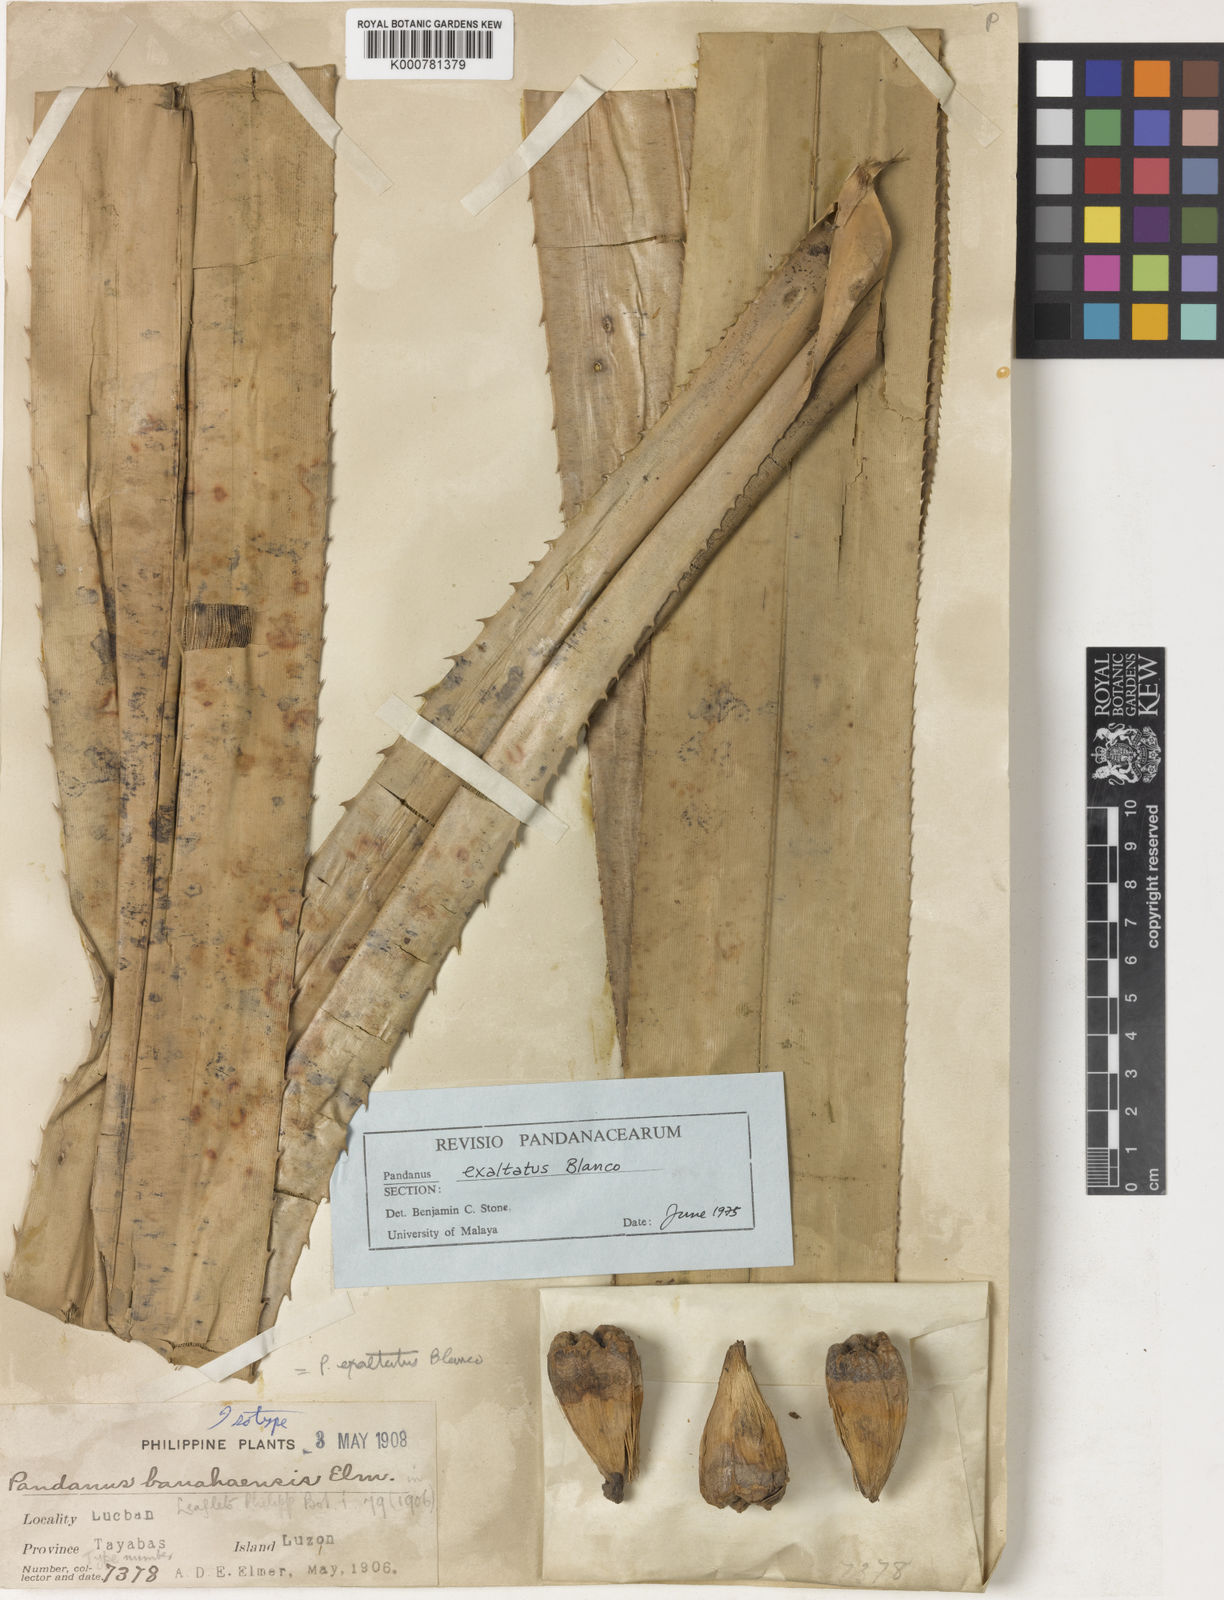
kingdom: Plantae
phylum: Tracheophyta
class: Liliopsida
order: Pandanales
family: Pandanaceae
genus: Pandanus
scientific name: Pandanus exaltatus
